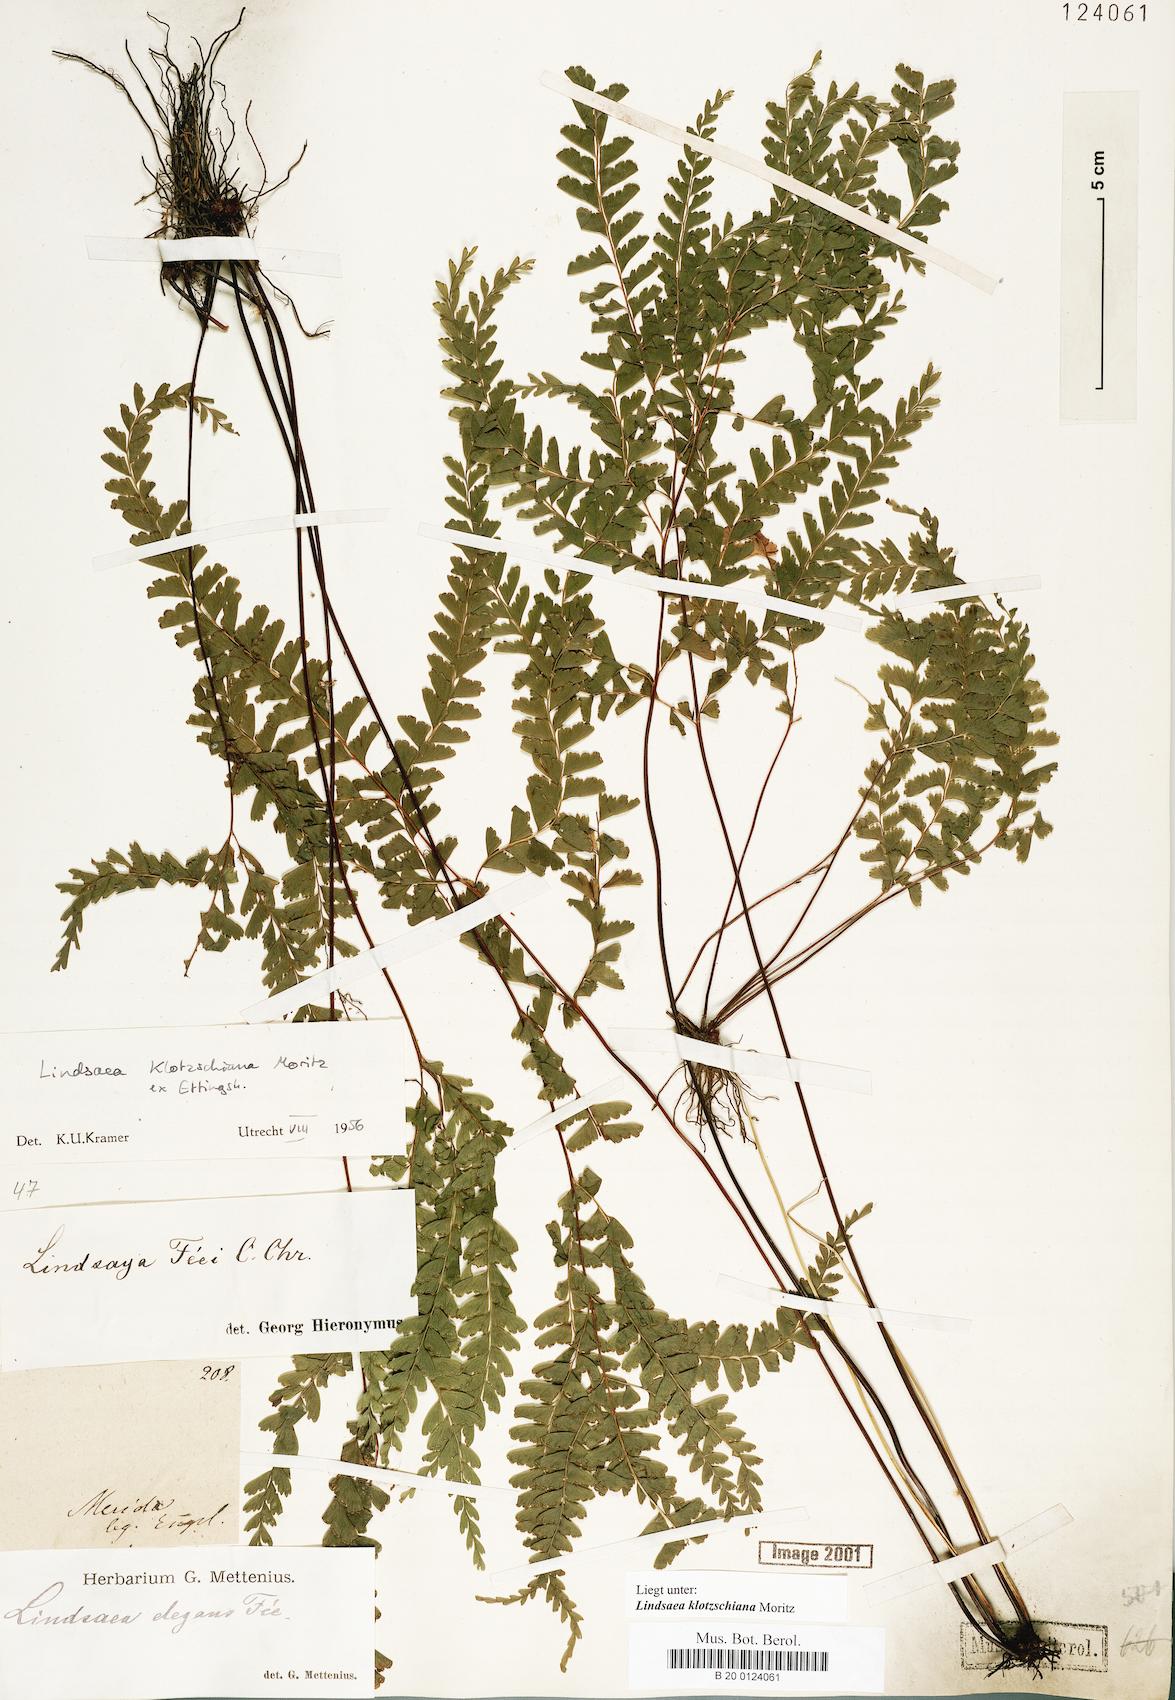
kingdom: Plantae
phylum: Tracheophyta
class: Polypodiopsida
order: Polypodiales
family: Lindsaeaceae
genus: Lindsaea
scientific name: Lindsaea klotzschiana
